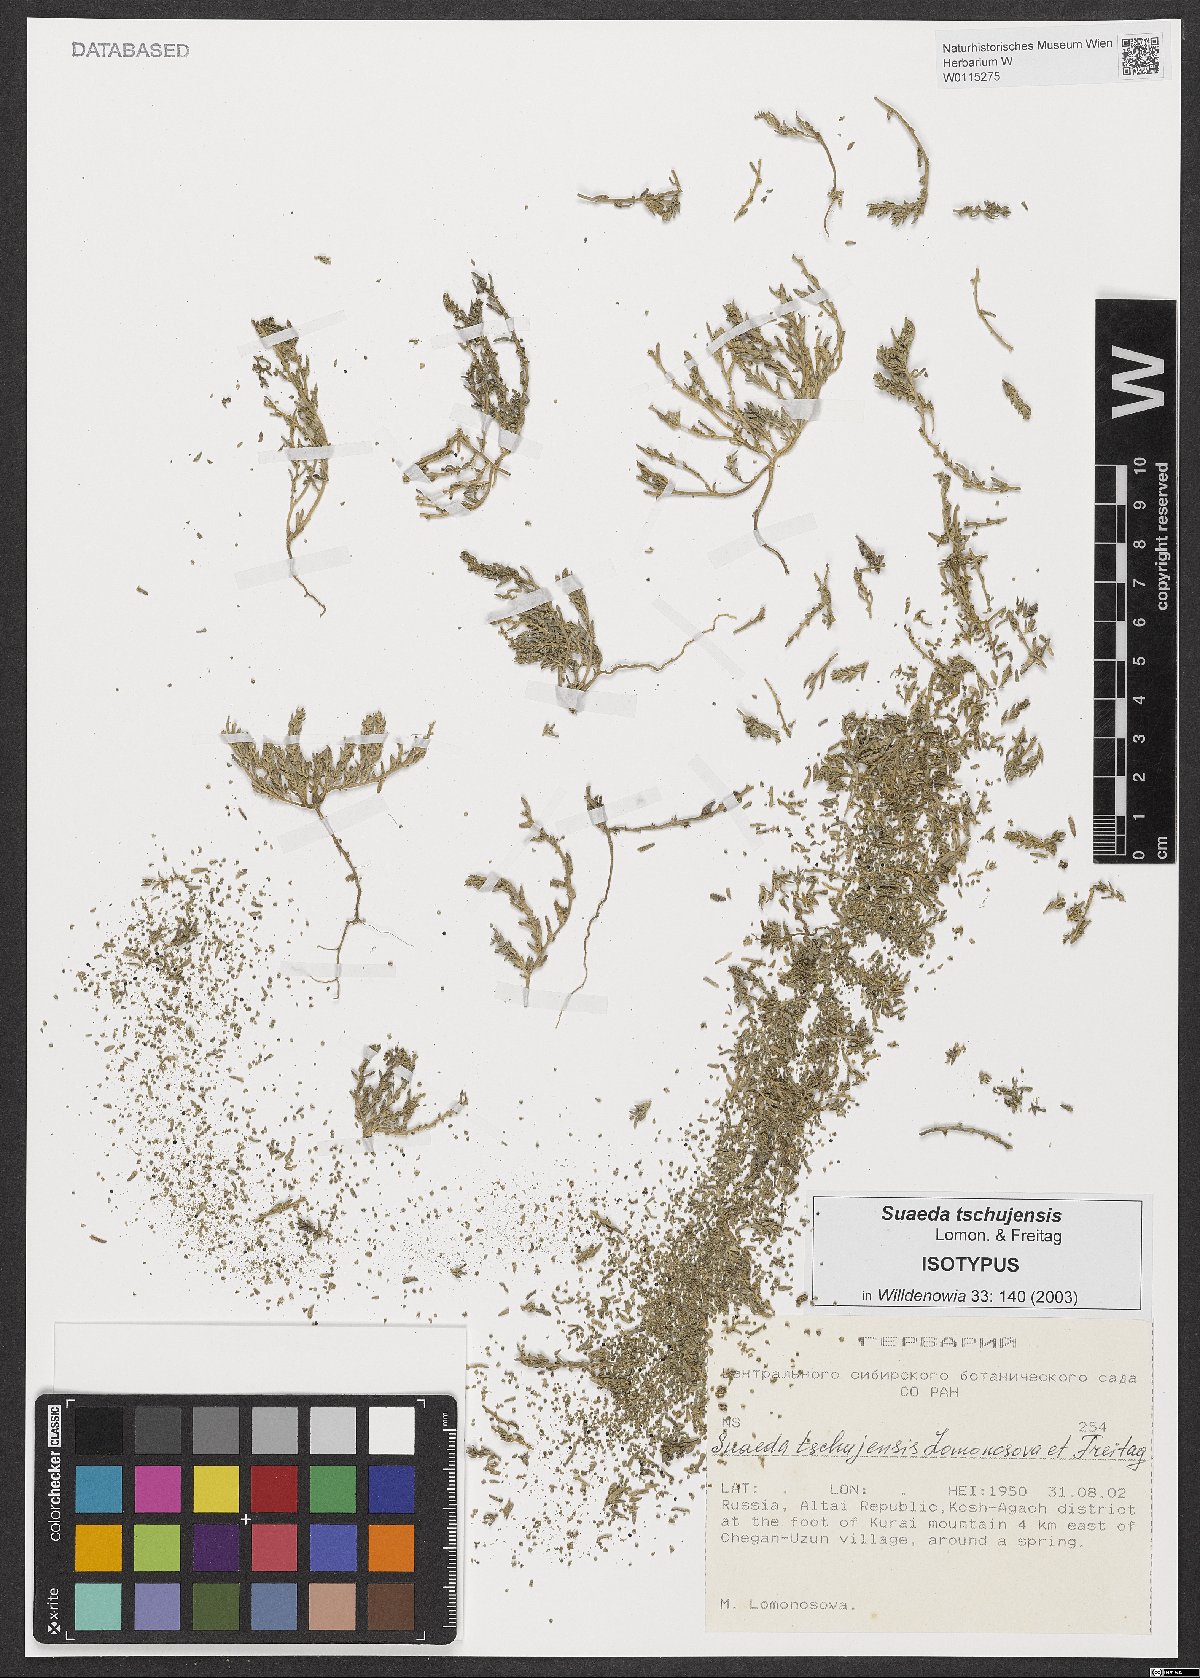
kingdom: Plantae
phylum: Tracheophyta
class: Magnoliopsida
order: Caryophyllales
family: Amaranthaceae
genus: Suaeda
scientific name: Suaeda tschujensis
